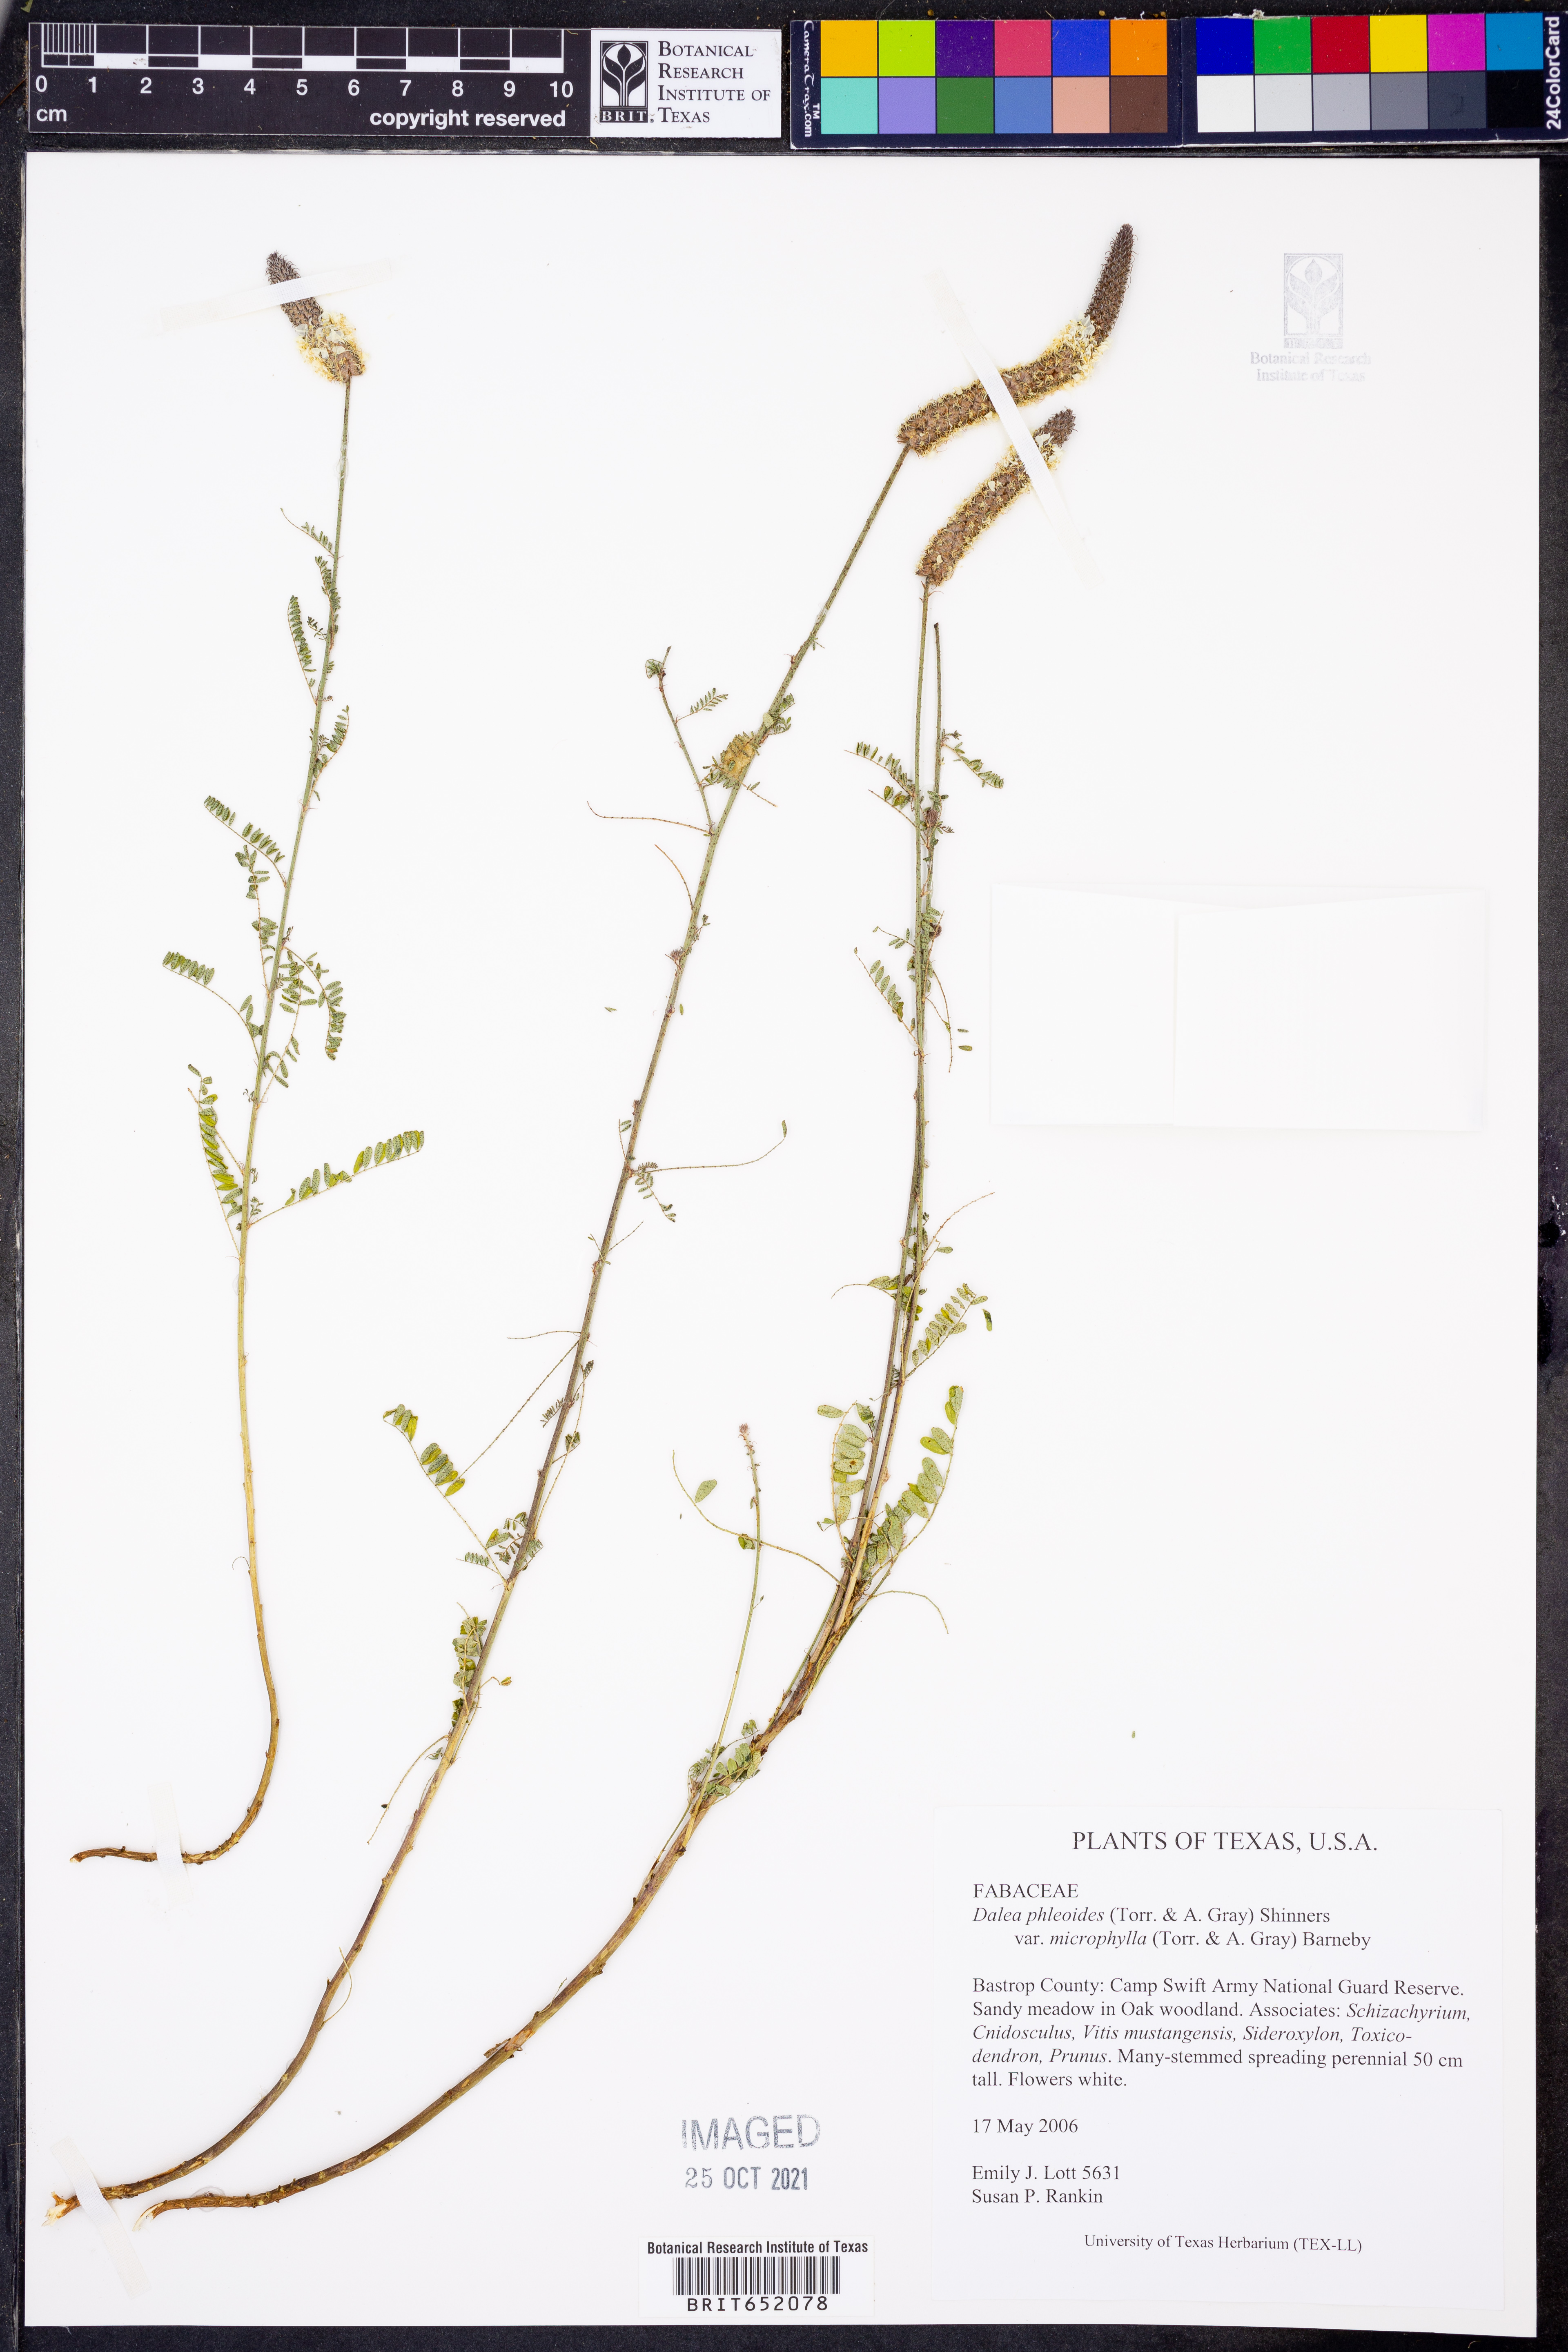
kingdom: Plantae
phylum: Tracheophyta
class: Magnoliopsida
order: Fabales
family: Fabaceae
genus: Dalea
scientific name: Dalea drummondiana
